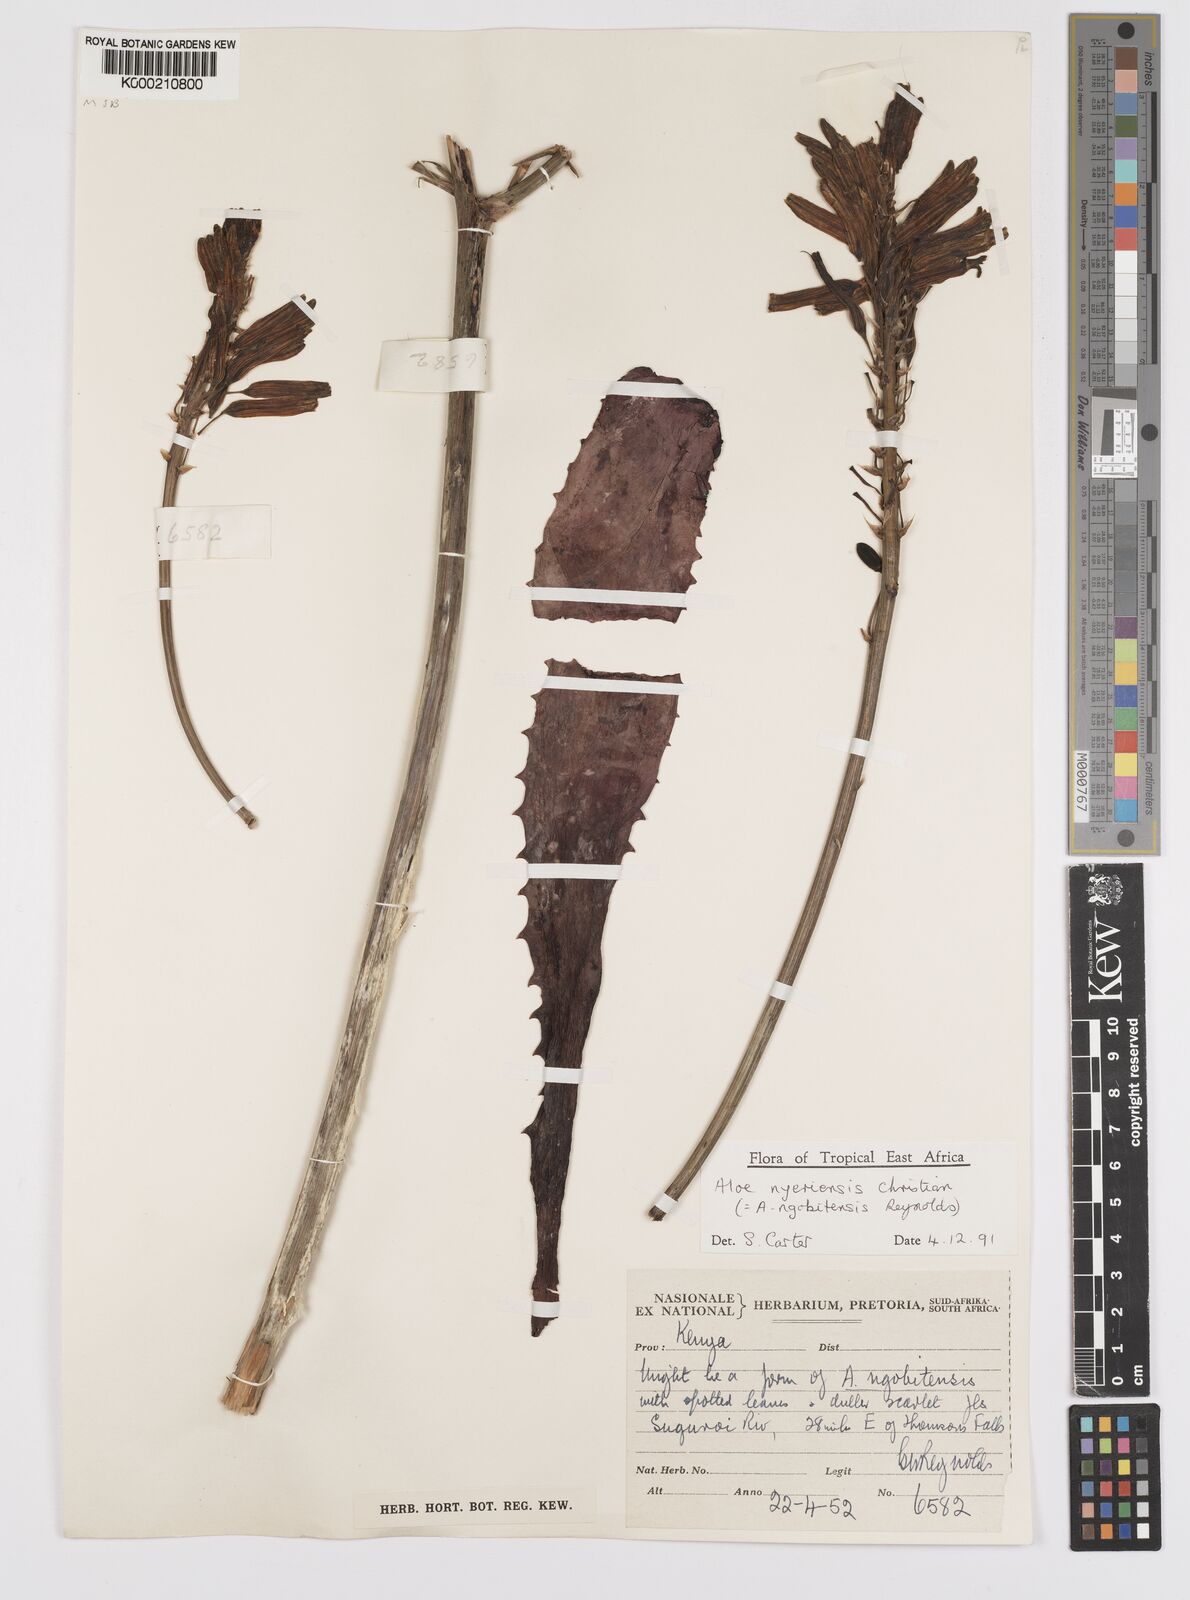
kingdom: Plantae
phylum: Tracheophyta
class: Liliopsida
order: Asparagales
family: Asphodelaceae
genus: Aloe
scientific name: Aloe nyeriensis
